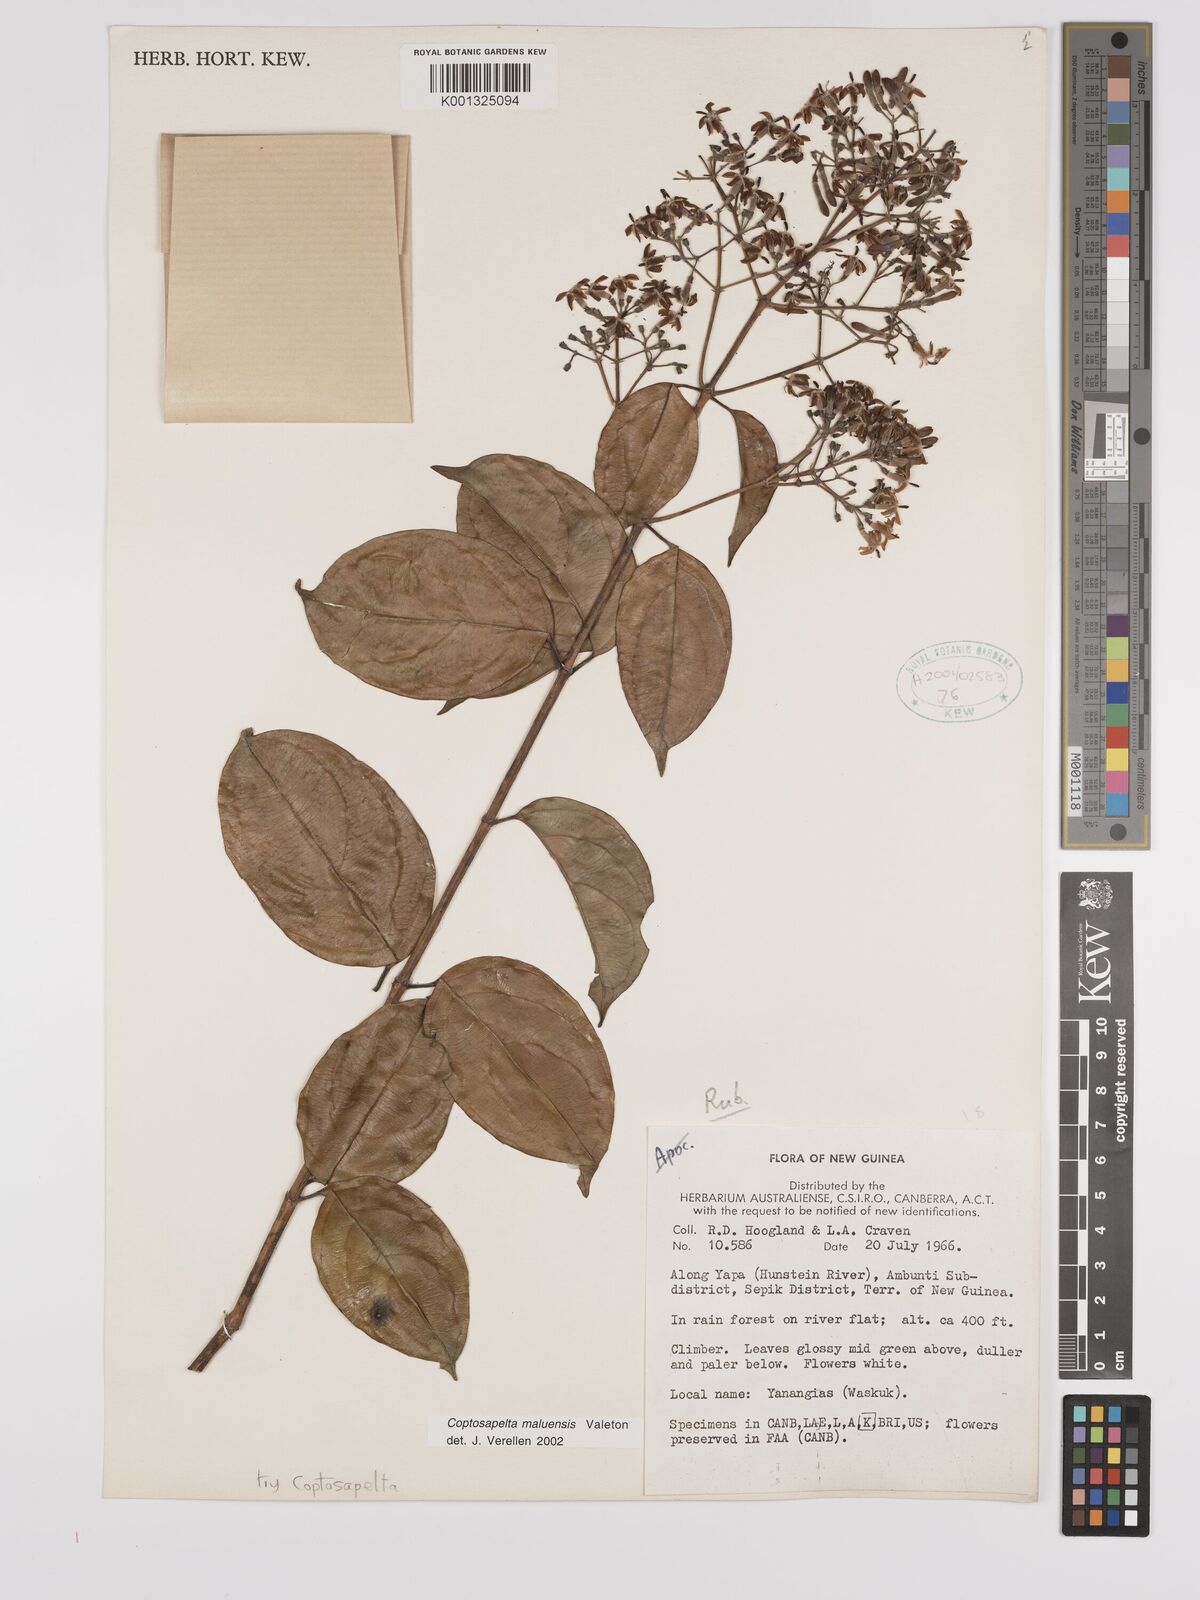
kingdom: Plantae
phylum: Tracheophyta
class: Magnoliopsida
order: Gentianales
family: Rubiaceae
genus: Coptosapelta
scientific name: Coptosapelta maluensis
